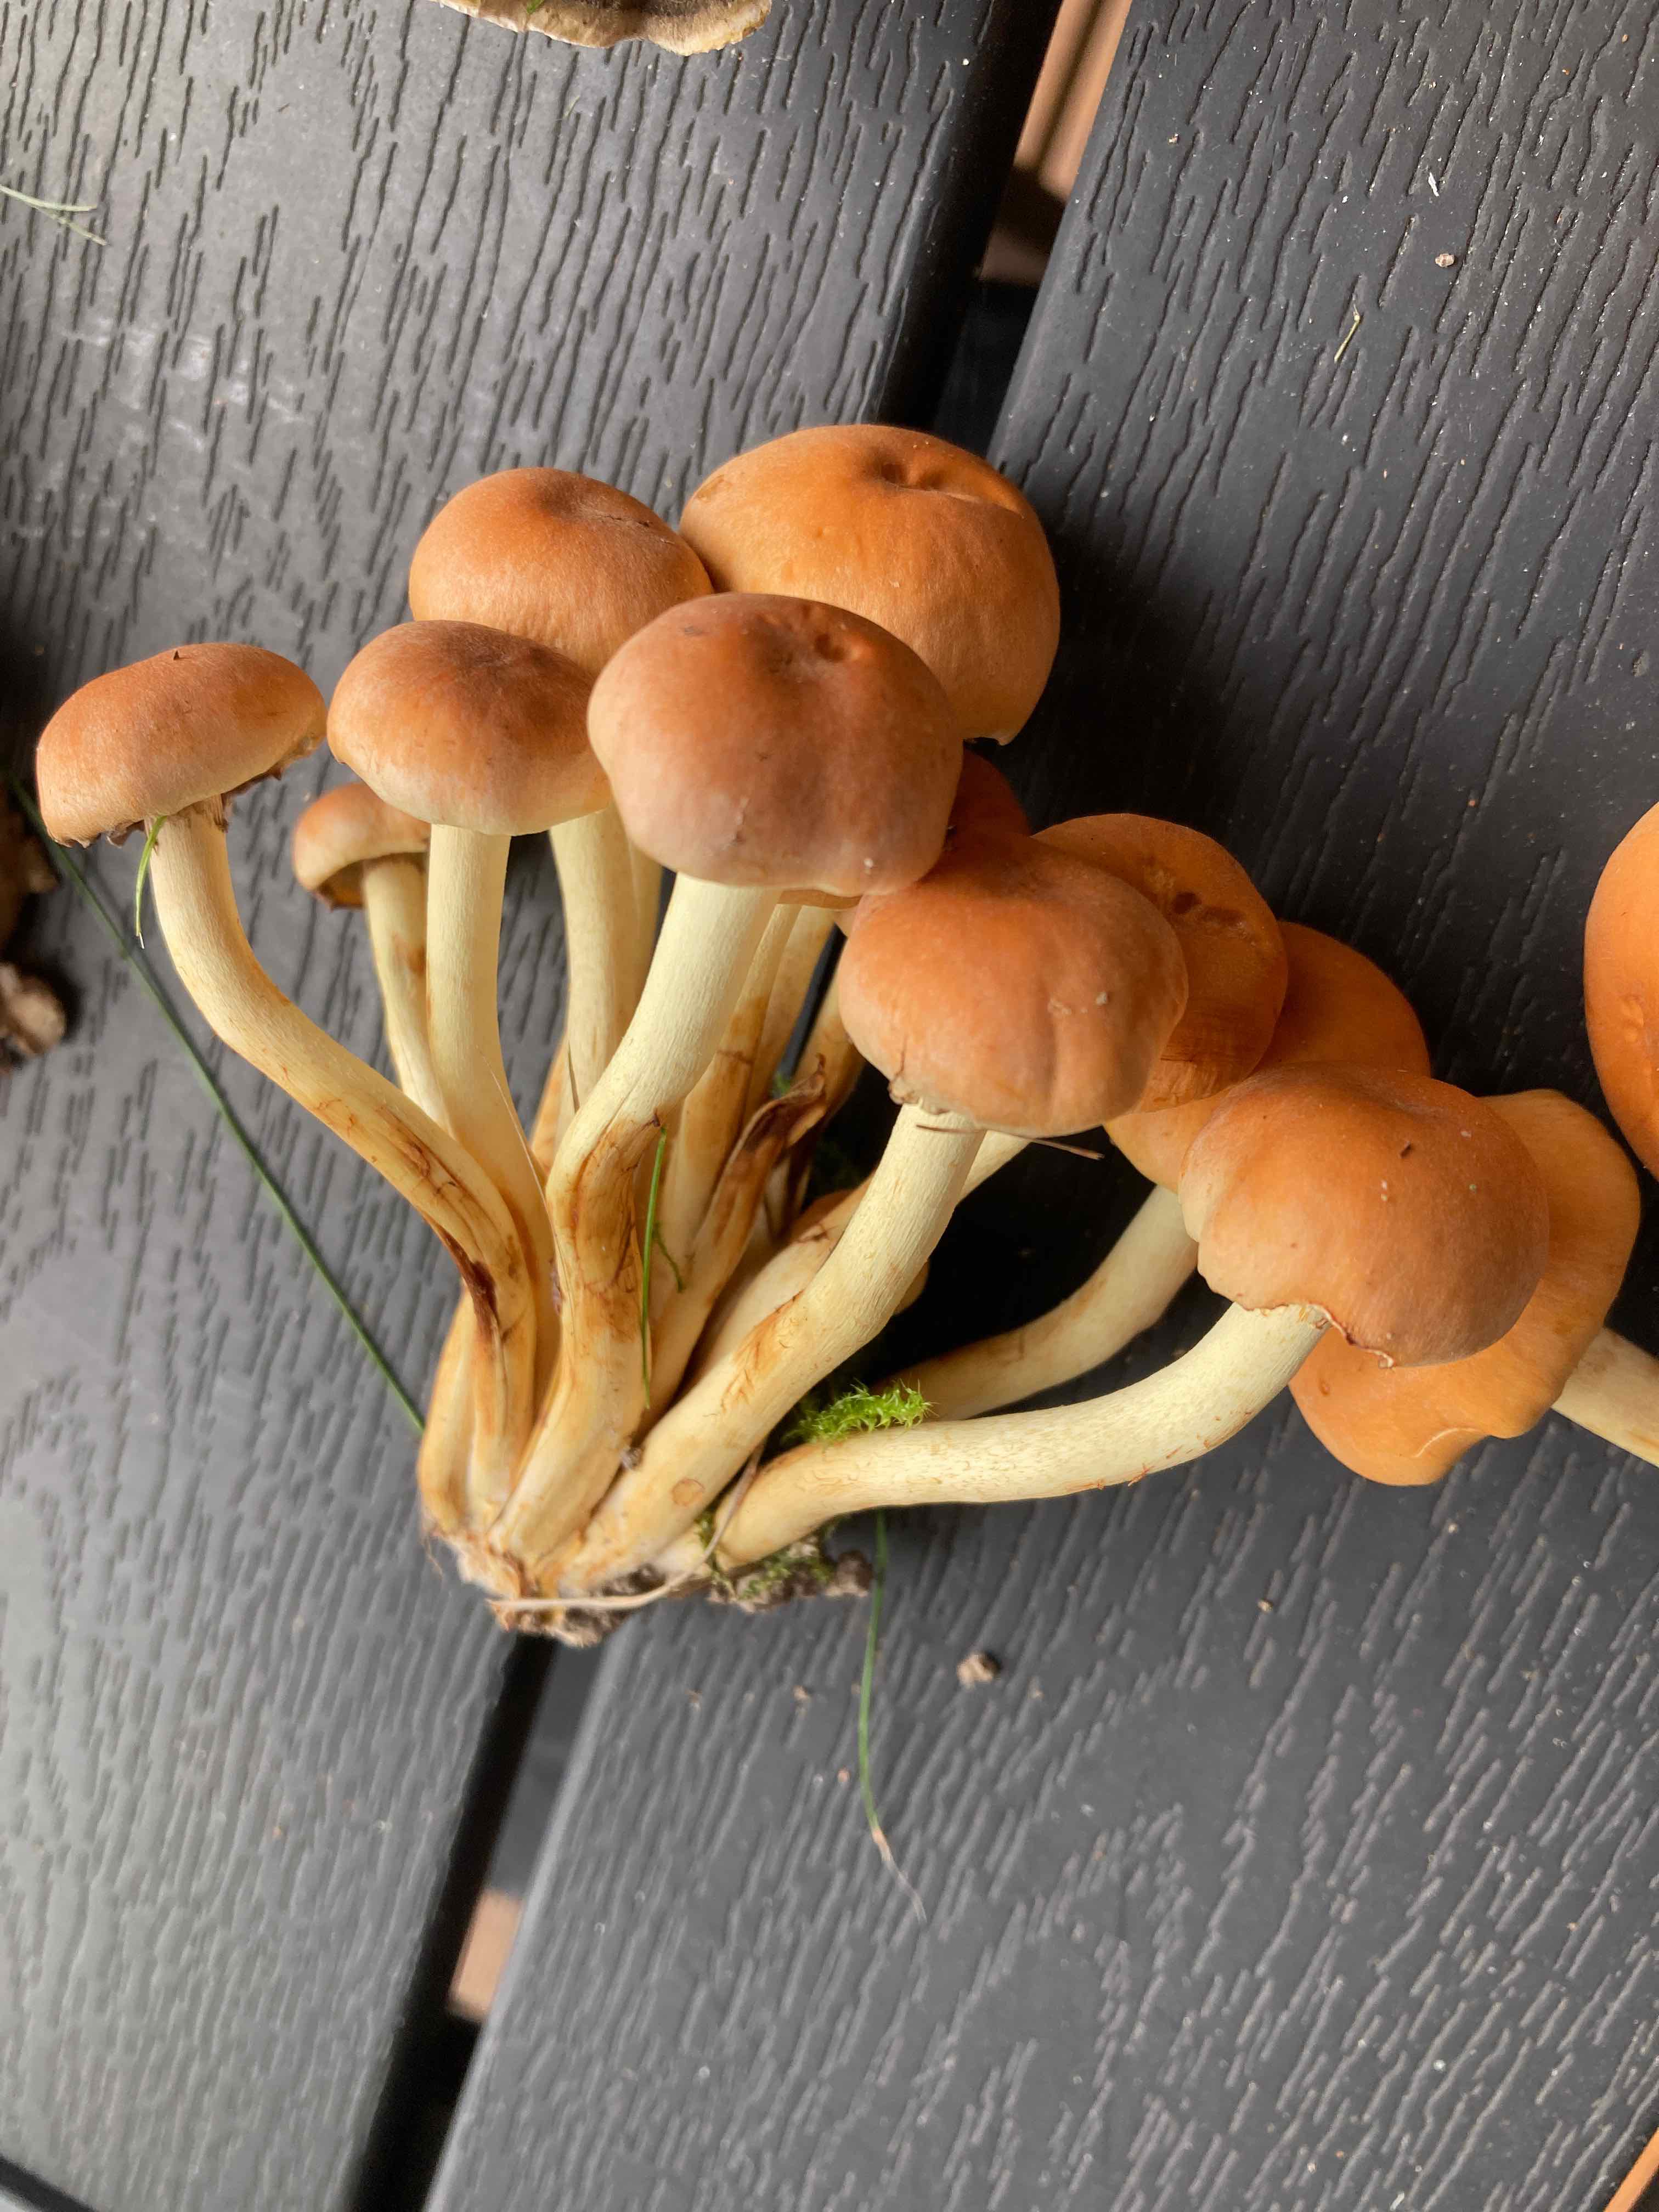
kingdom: Fungi
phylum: Basidiomycota
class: Agaricomycetes
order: Agaricales
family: Strophariaceae
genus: Hypholoma
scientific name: Hypholoma fasciculare
